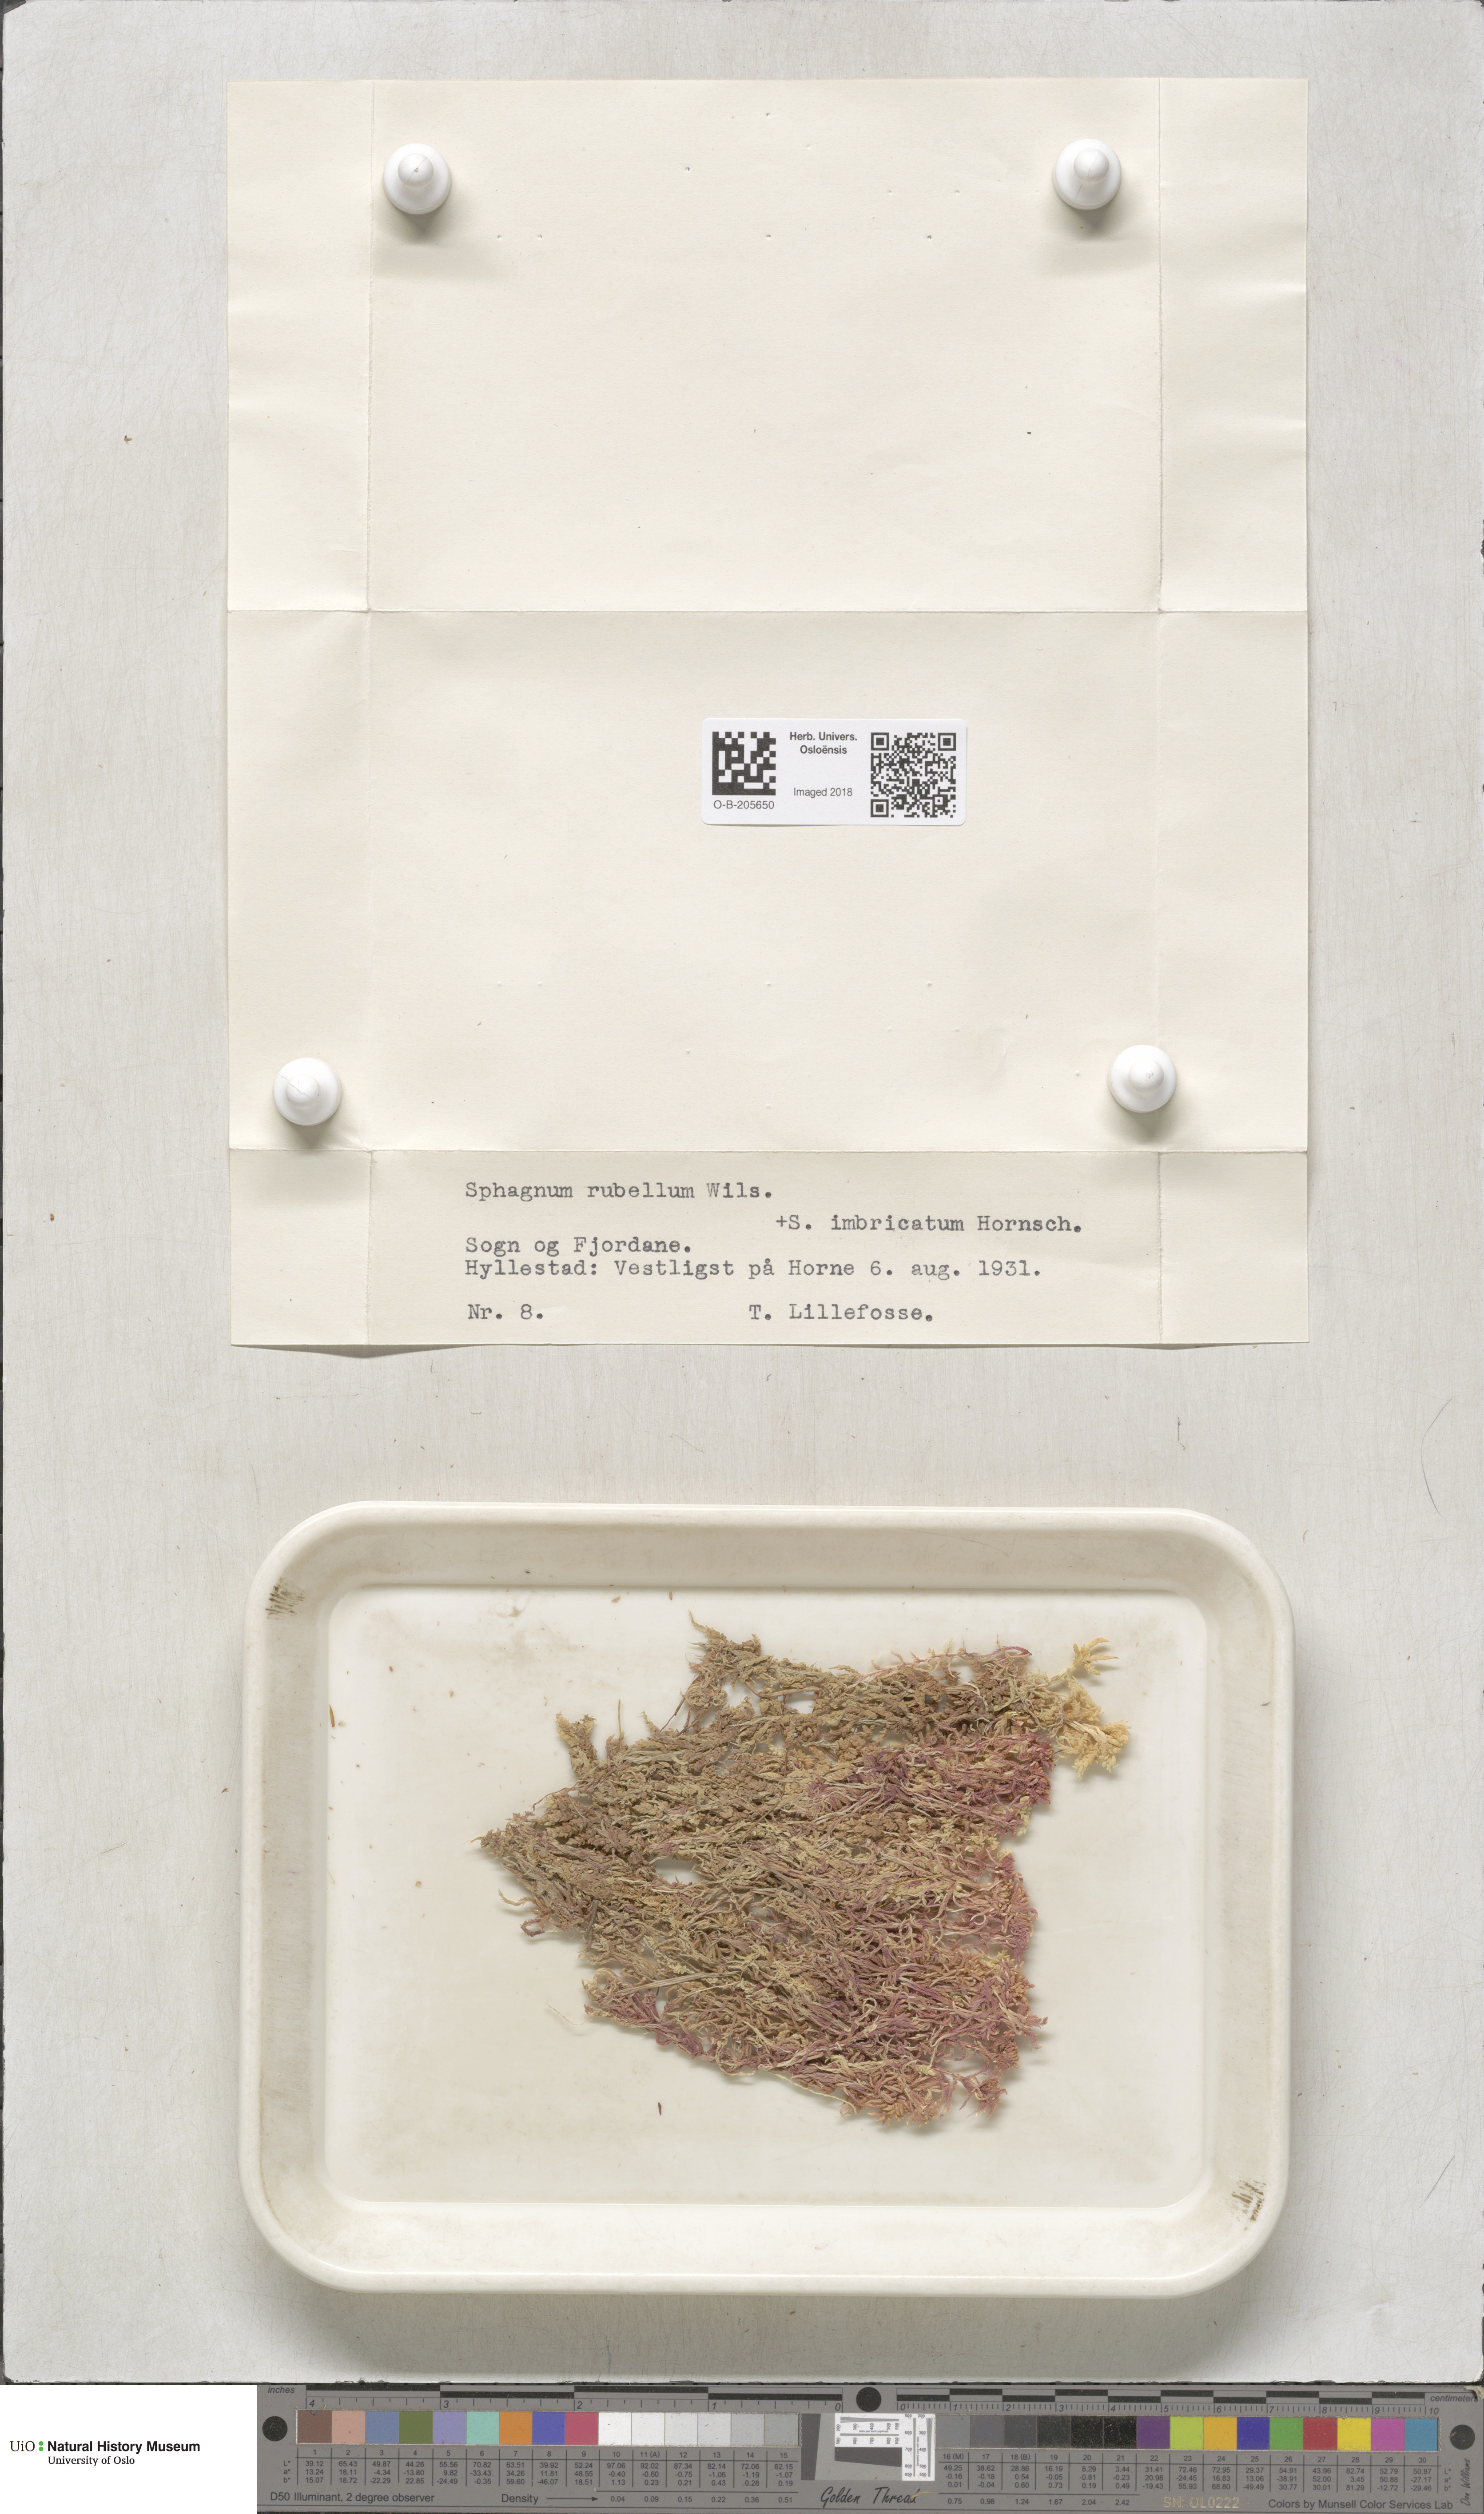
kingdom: Plantae
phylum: Bryophyta
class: Sphagnopsida
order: Sphagnales
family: Sphagnaceae
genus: Sphagnum
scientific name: Sphagnum rubellum
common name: Red peat moss
